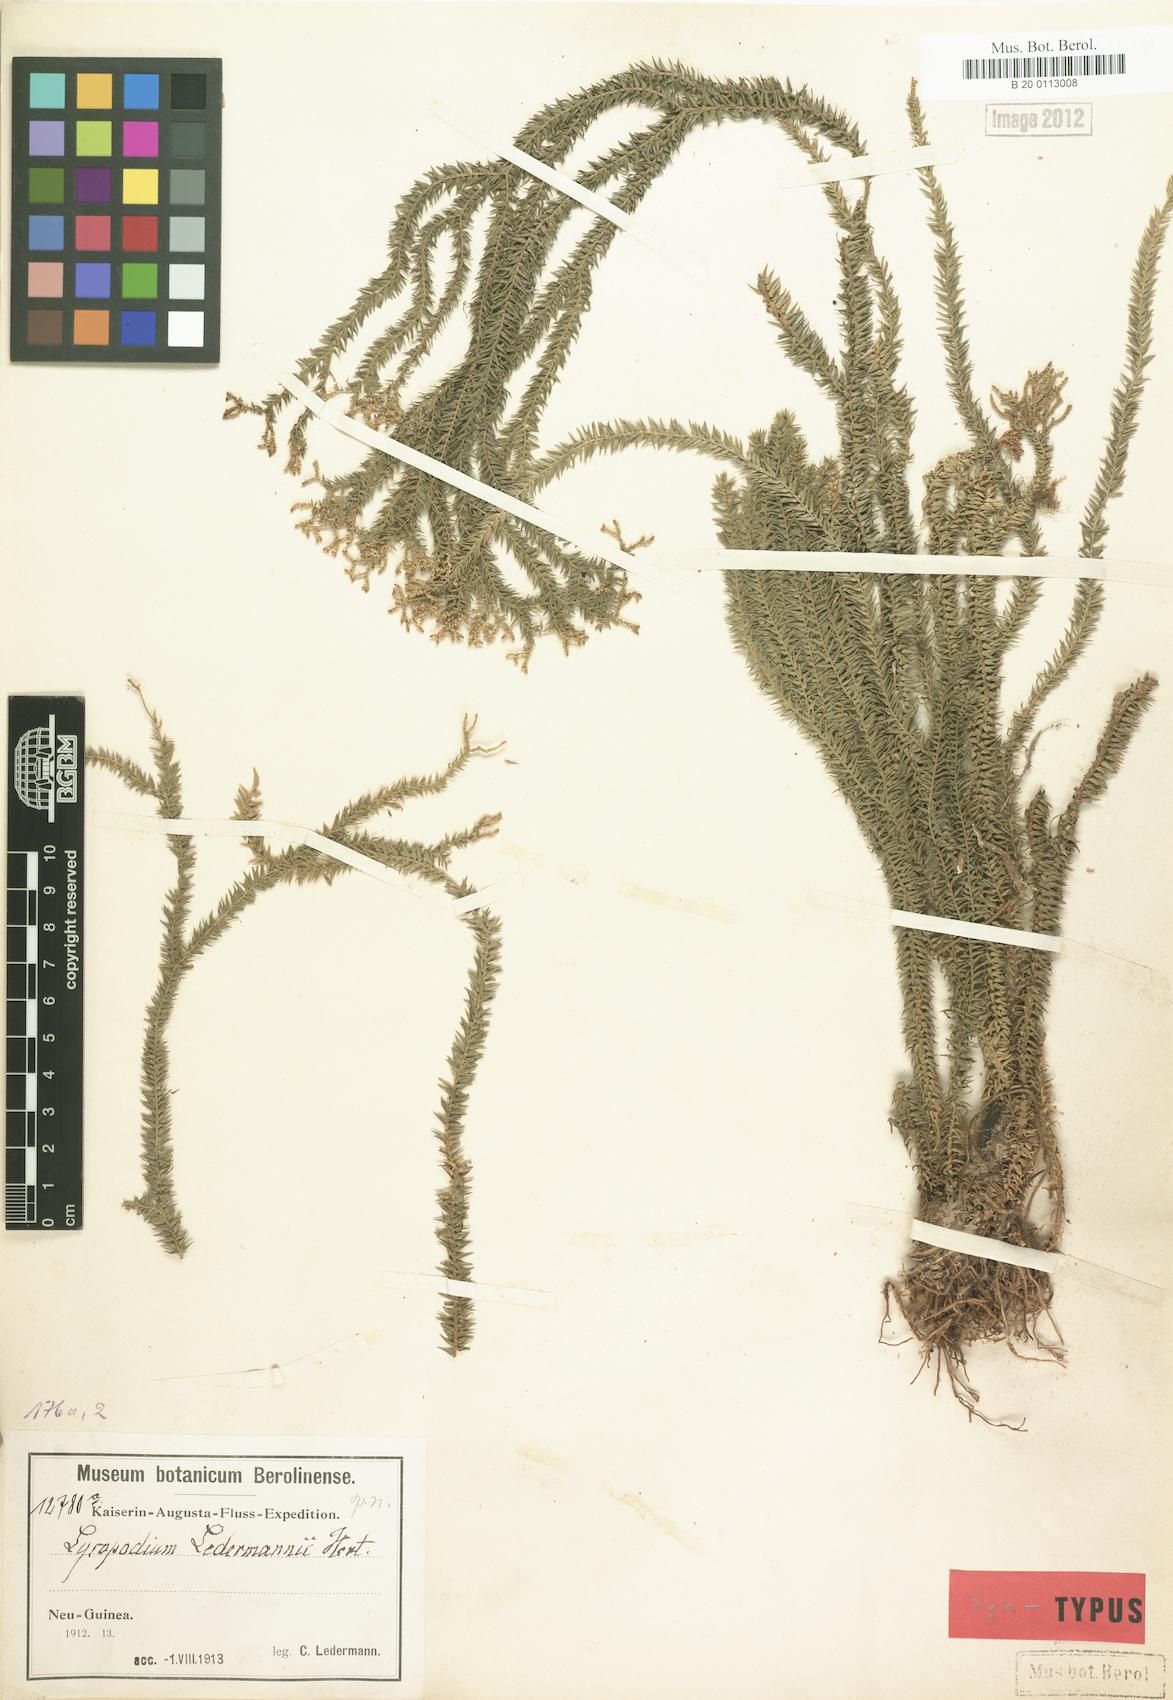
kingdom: Plantae
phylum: Tracheophyta
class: Lycopodiopsida
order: Lycopodiales
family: Lycopodiaceae
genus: Phlegmariurus
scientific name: Phlegmariurus ledermannii
